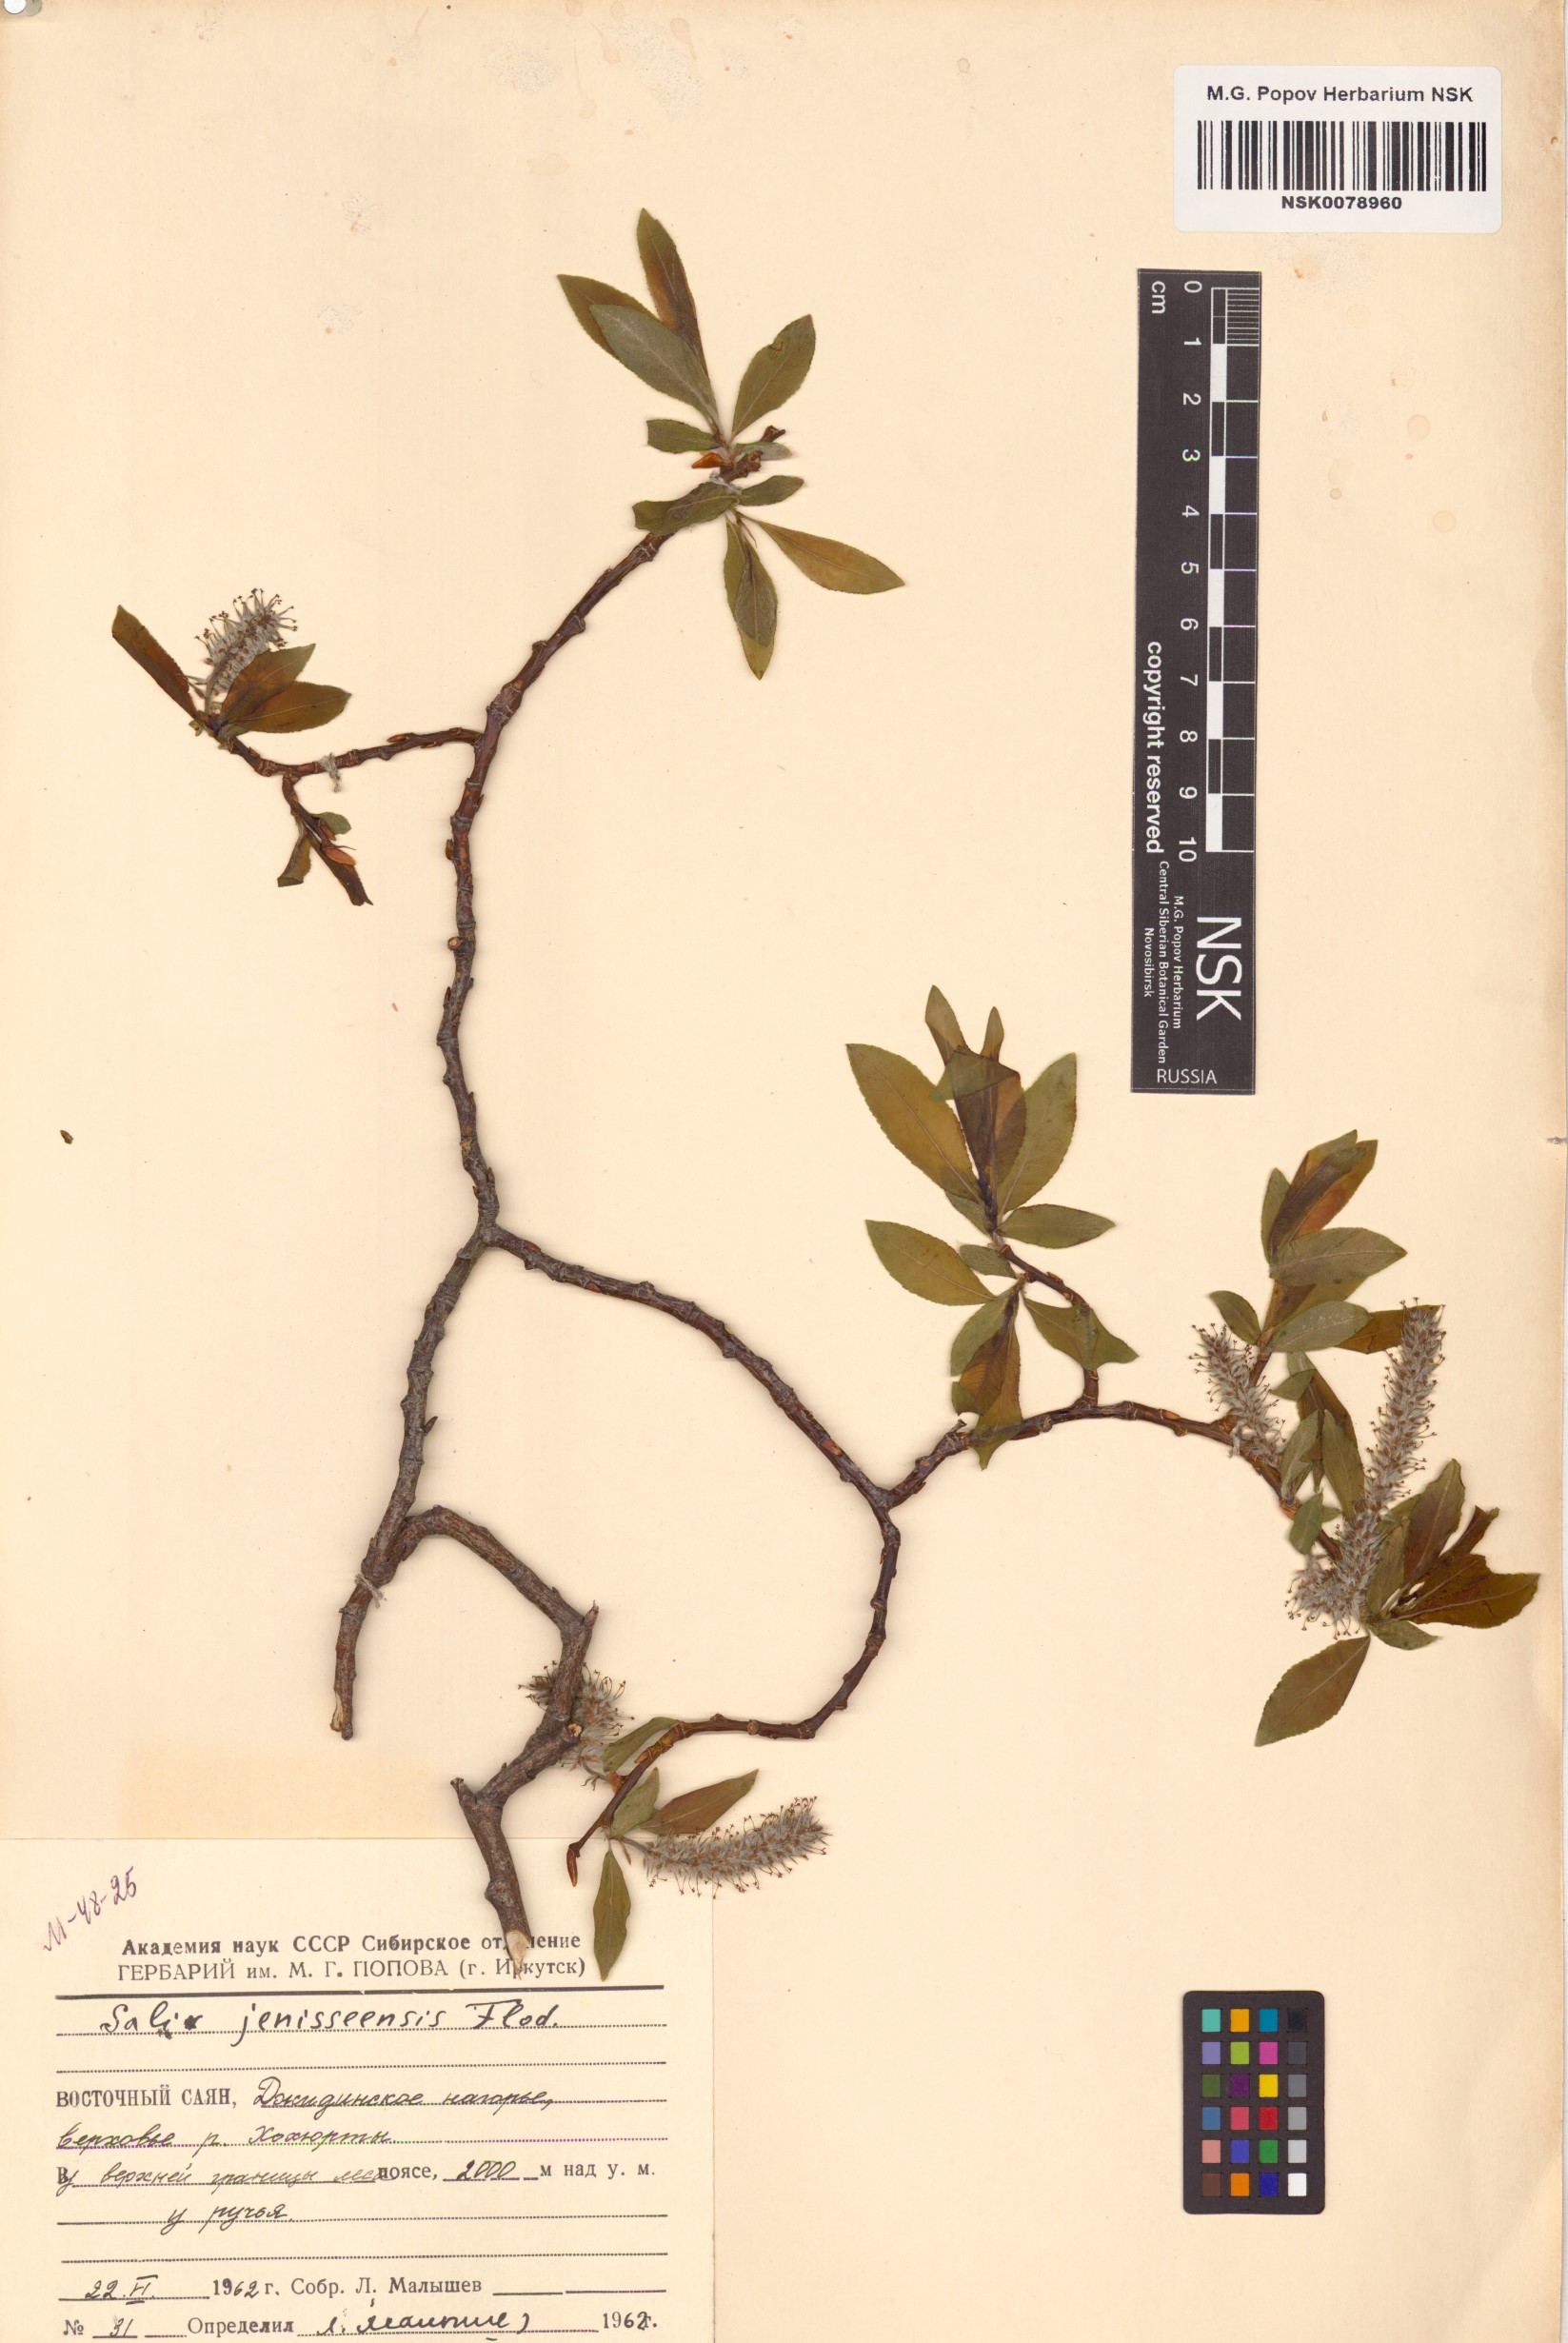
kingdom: Plantae
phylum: Tracheophyta
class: Magnoliopsida
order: Malpighiales
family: Salicaceae
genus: Salix
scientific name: Salix jenisseensis
